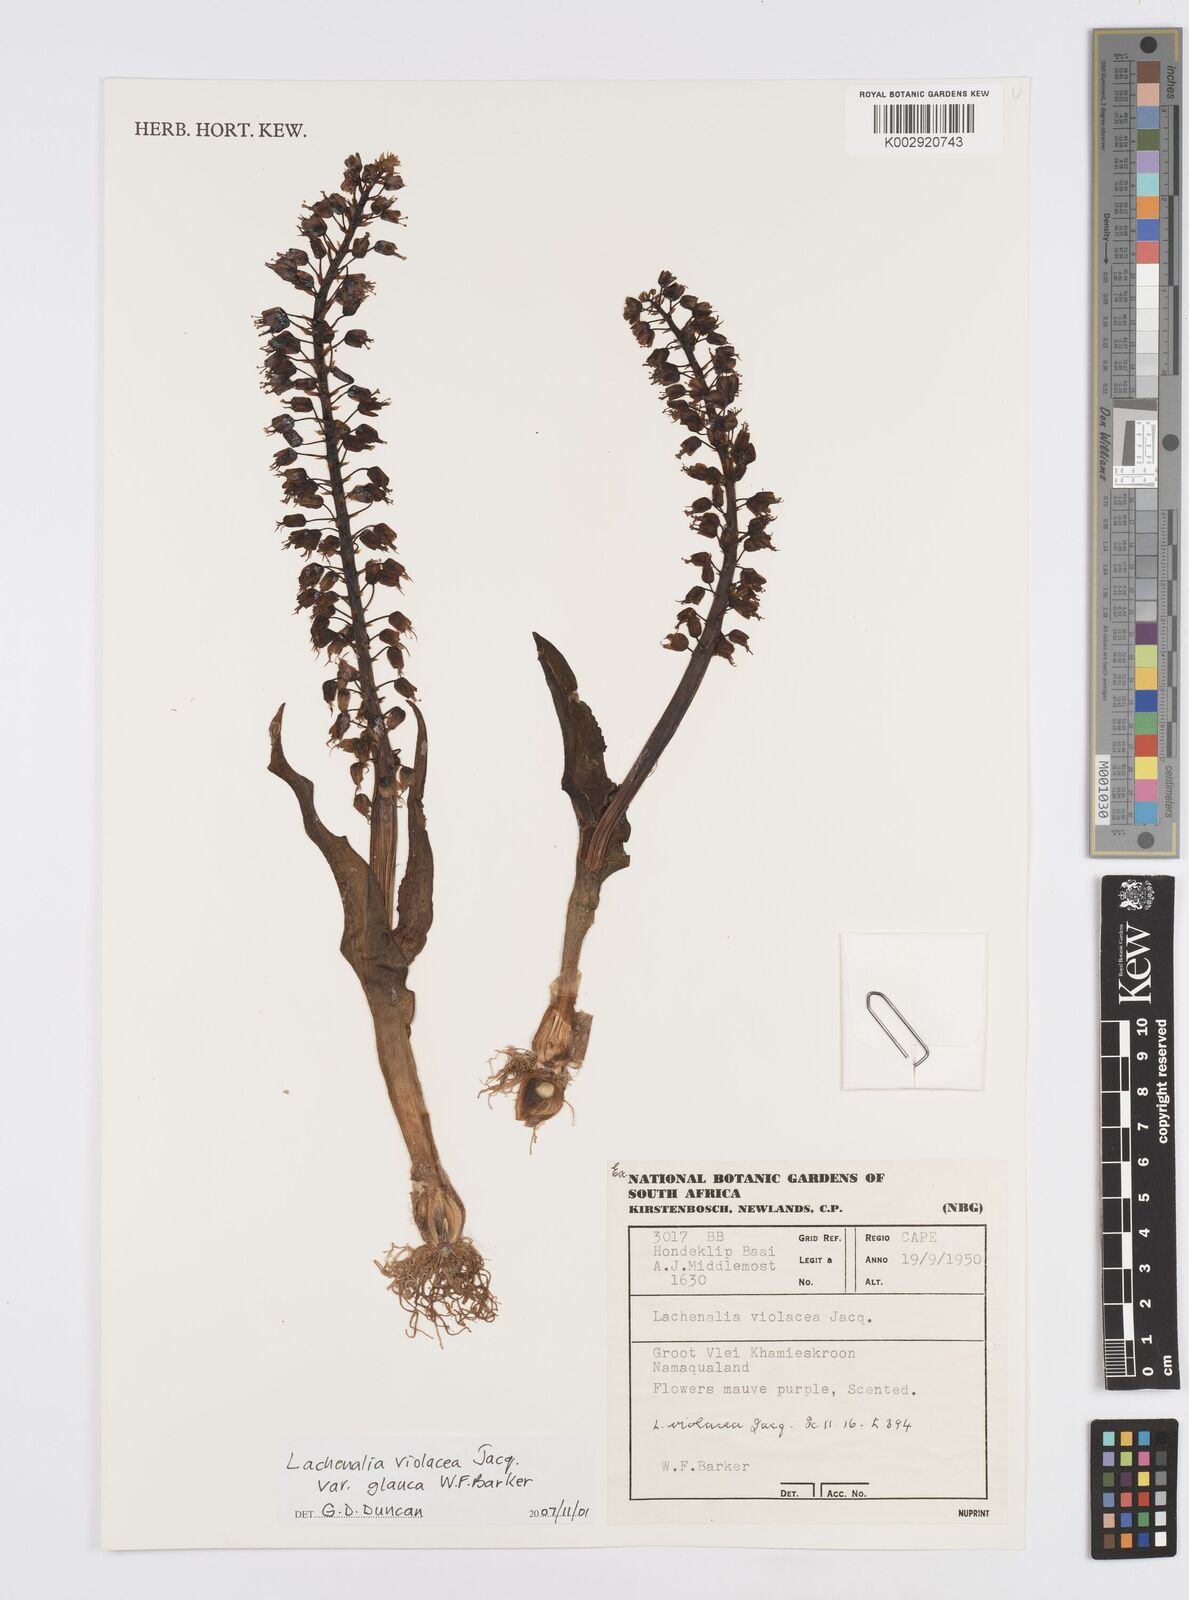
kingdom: Plantae
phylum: Tracheophyta
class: Liliopsida
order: Asparagales
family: Asparagaceae
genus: Lachenalia
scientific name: Lachenalia violacea
